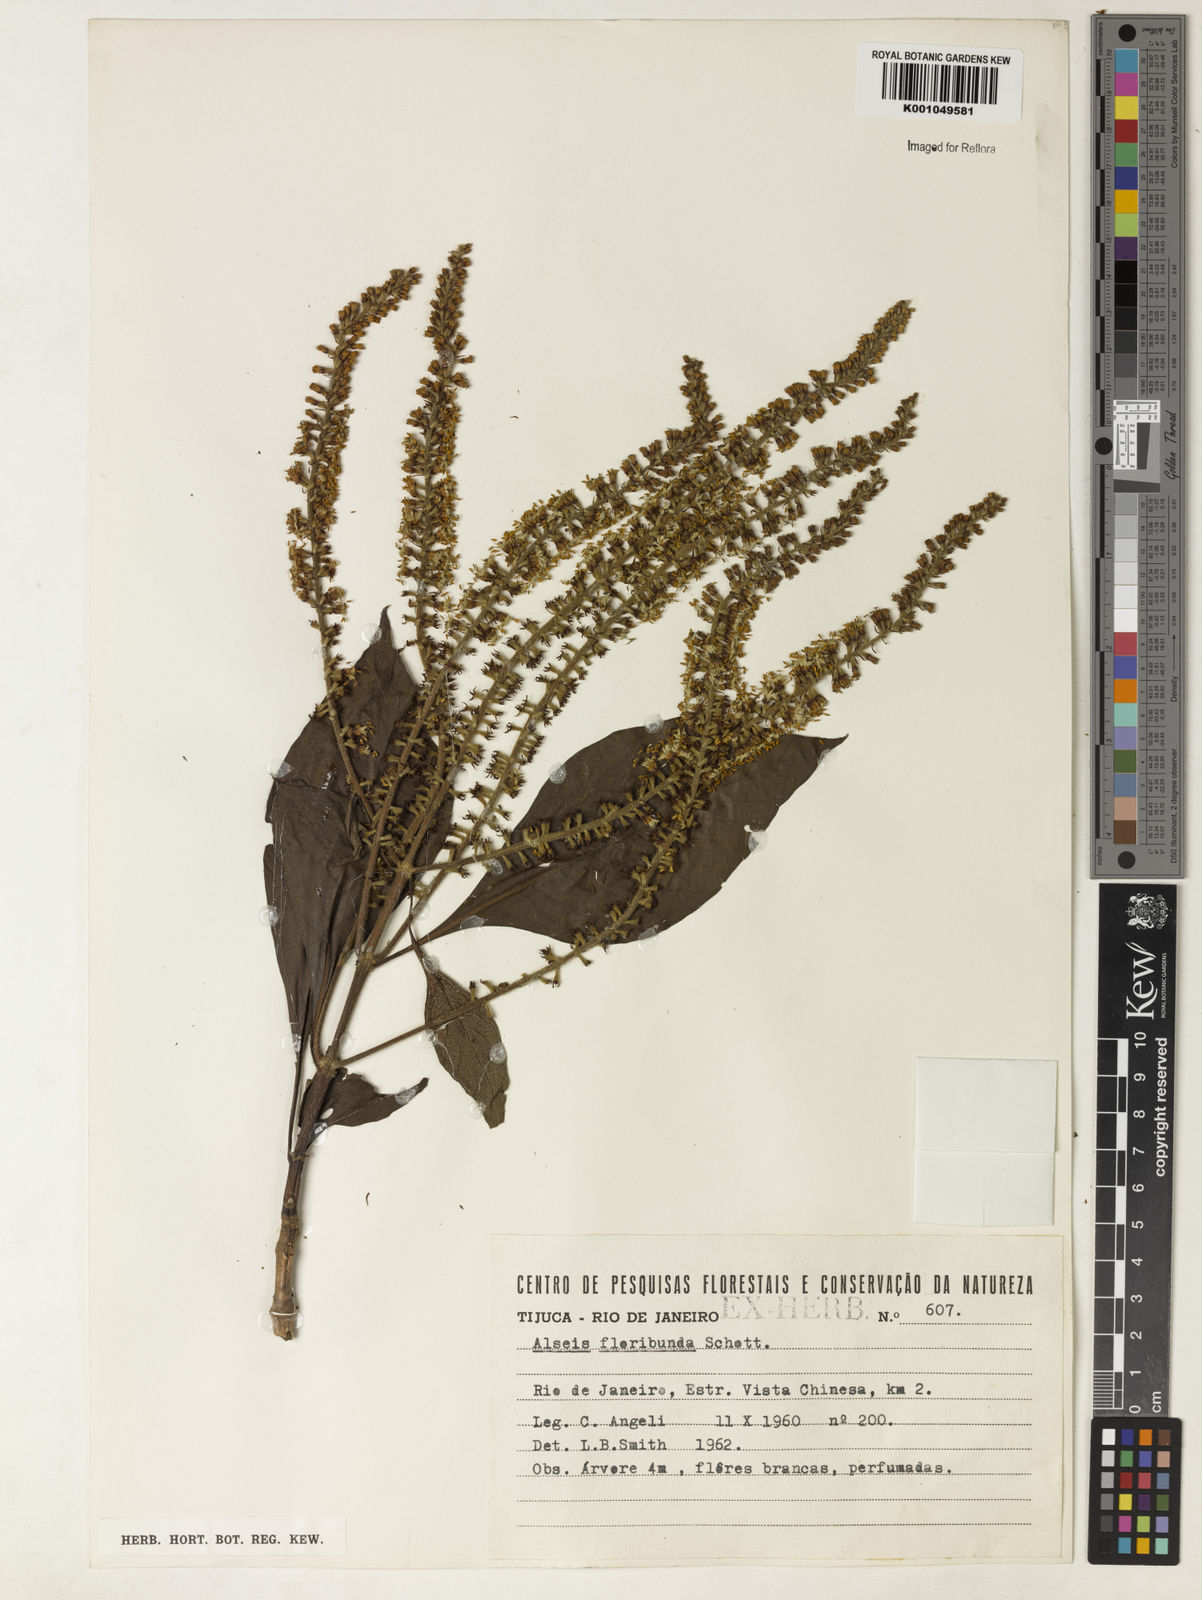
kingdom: Plantae
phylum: Tracheophyta
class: Magnoliopsida
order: Gentianales
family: Rubiaceae
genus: Alseis
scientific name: Alseis floribunda
